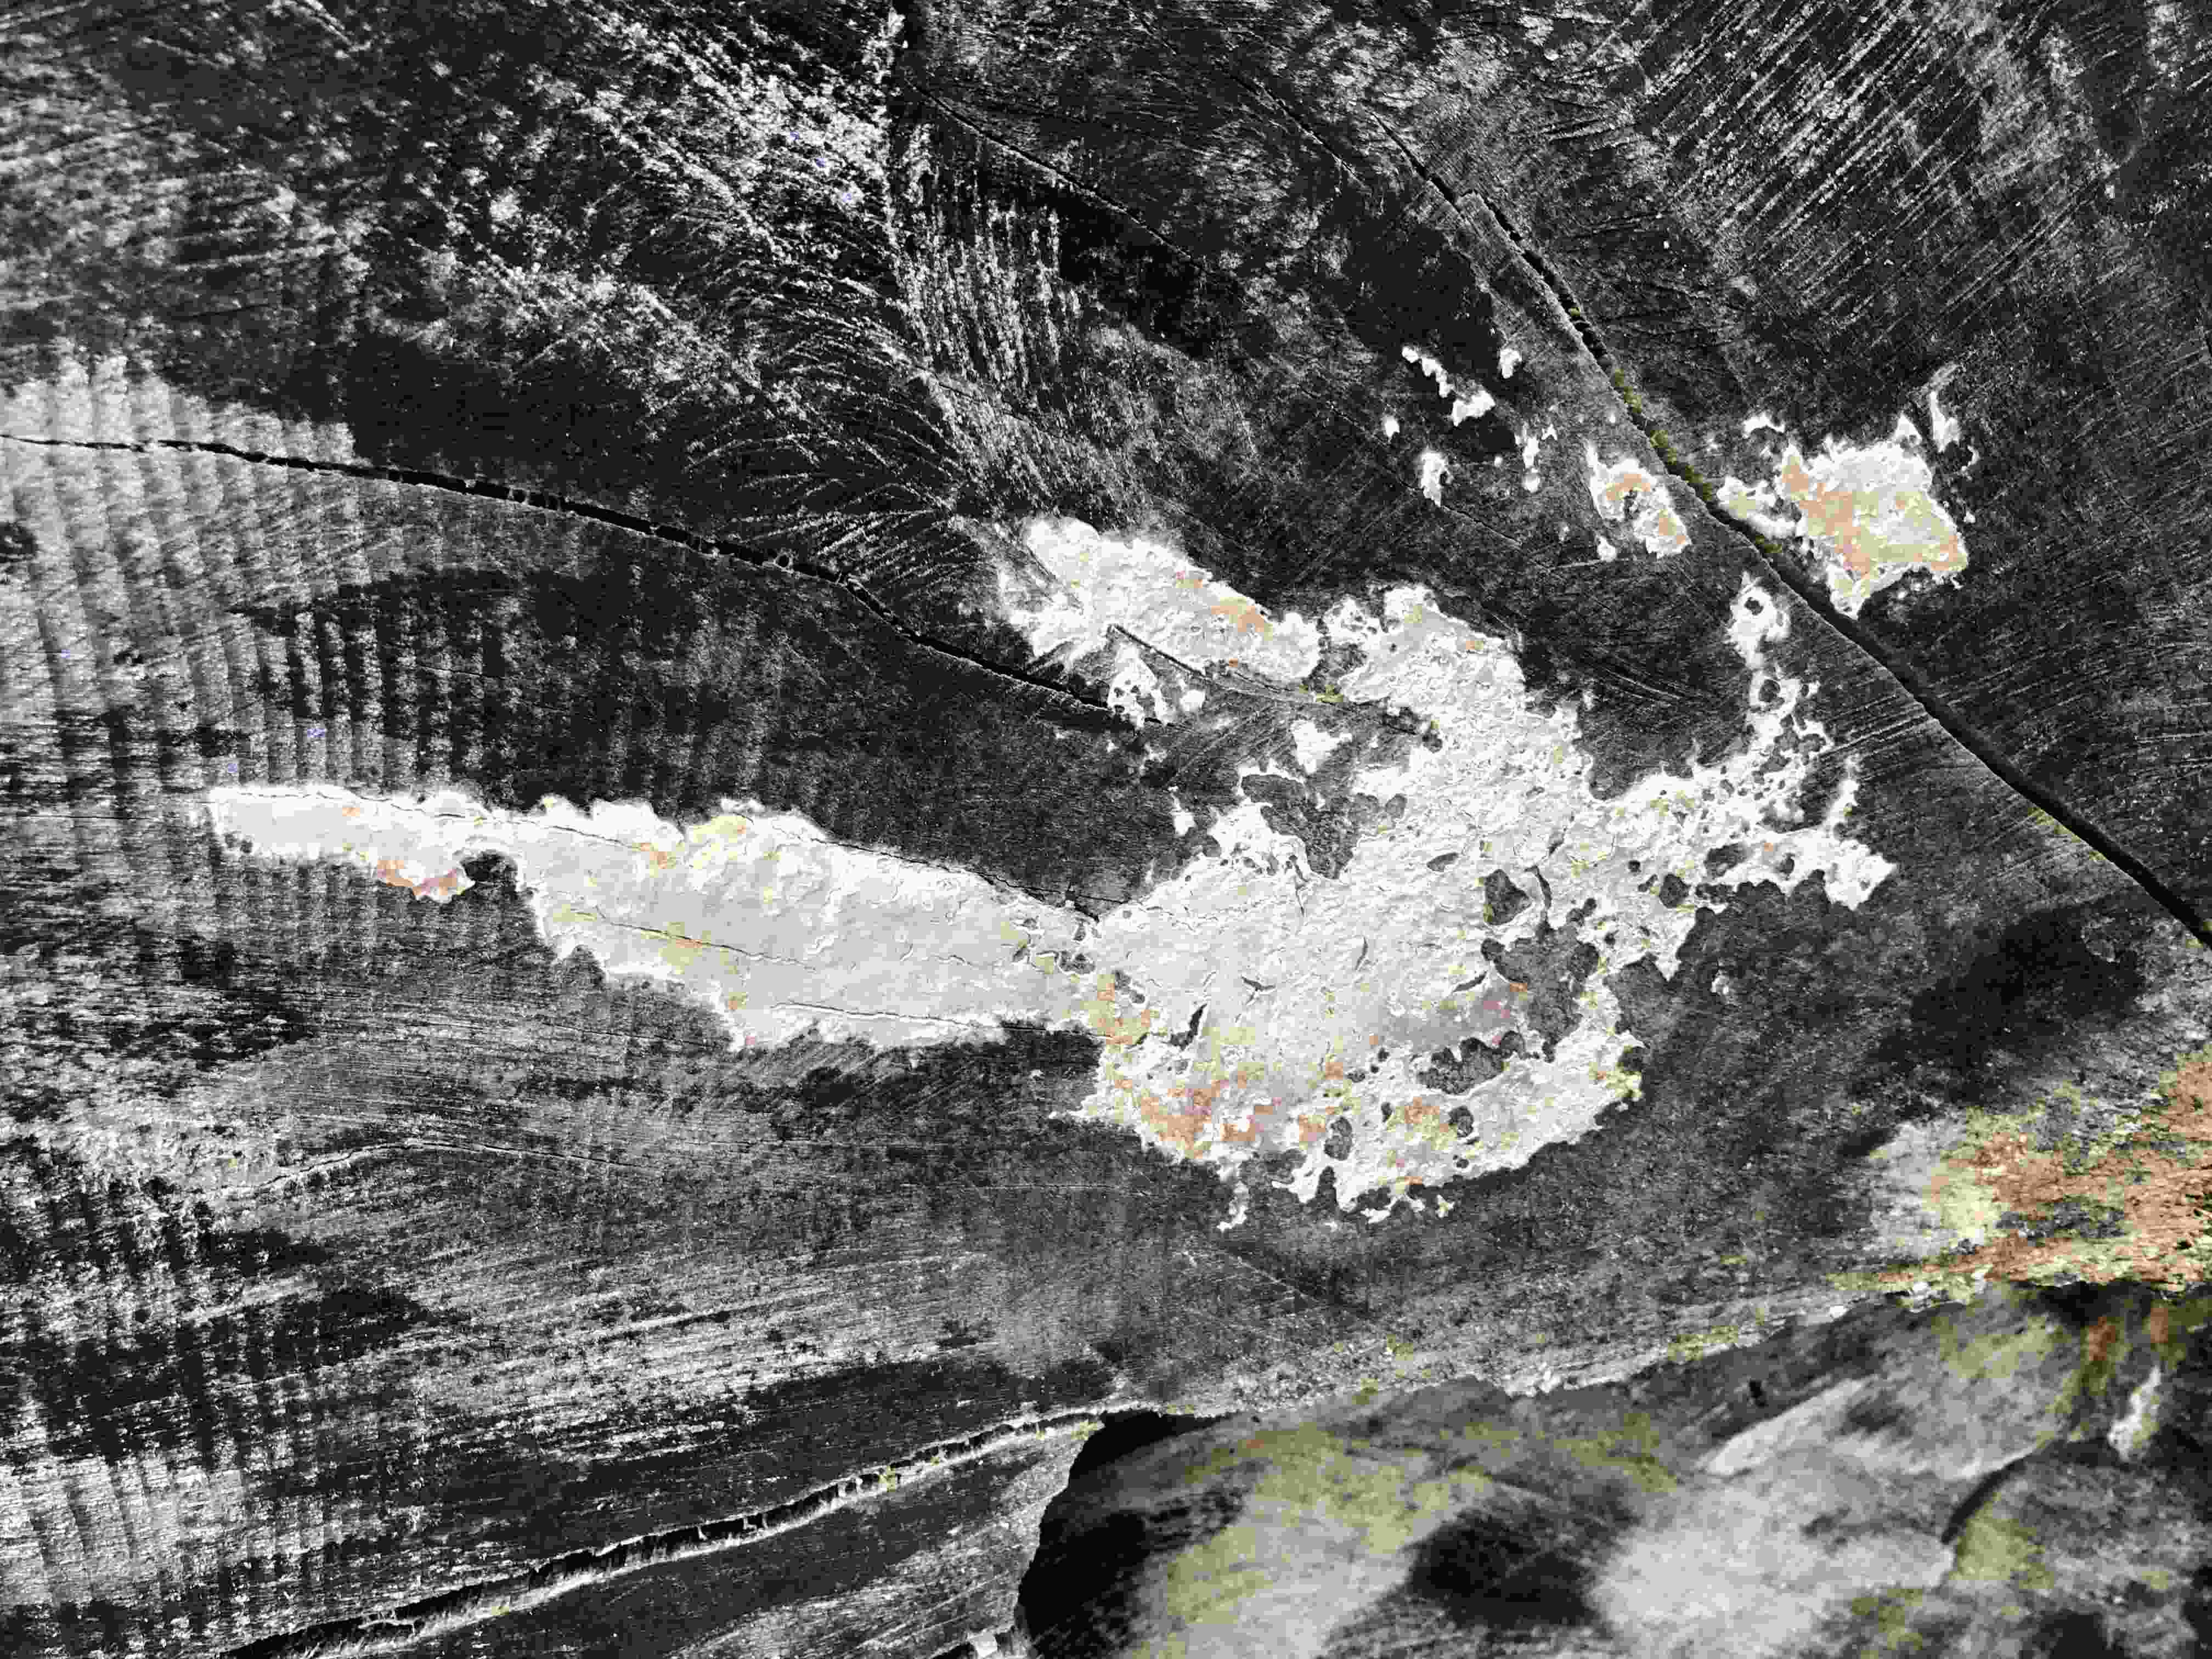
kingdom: Fungi
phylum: Basidiomycota
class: Agaricomycetes
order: Agaricales
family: Physalacriaceae
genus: Cylindrobasidium
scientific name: Cylindrobasidium evolvens
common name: sprækkehinde
